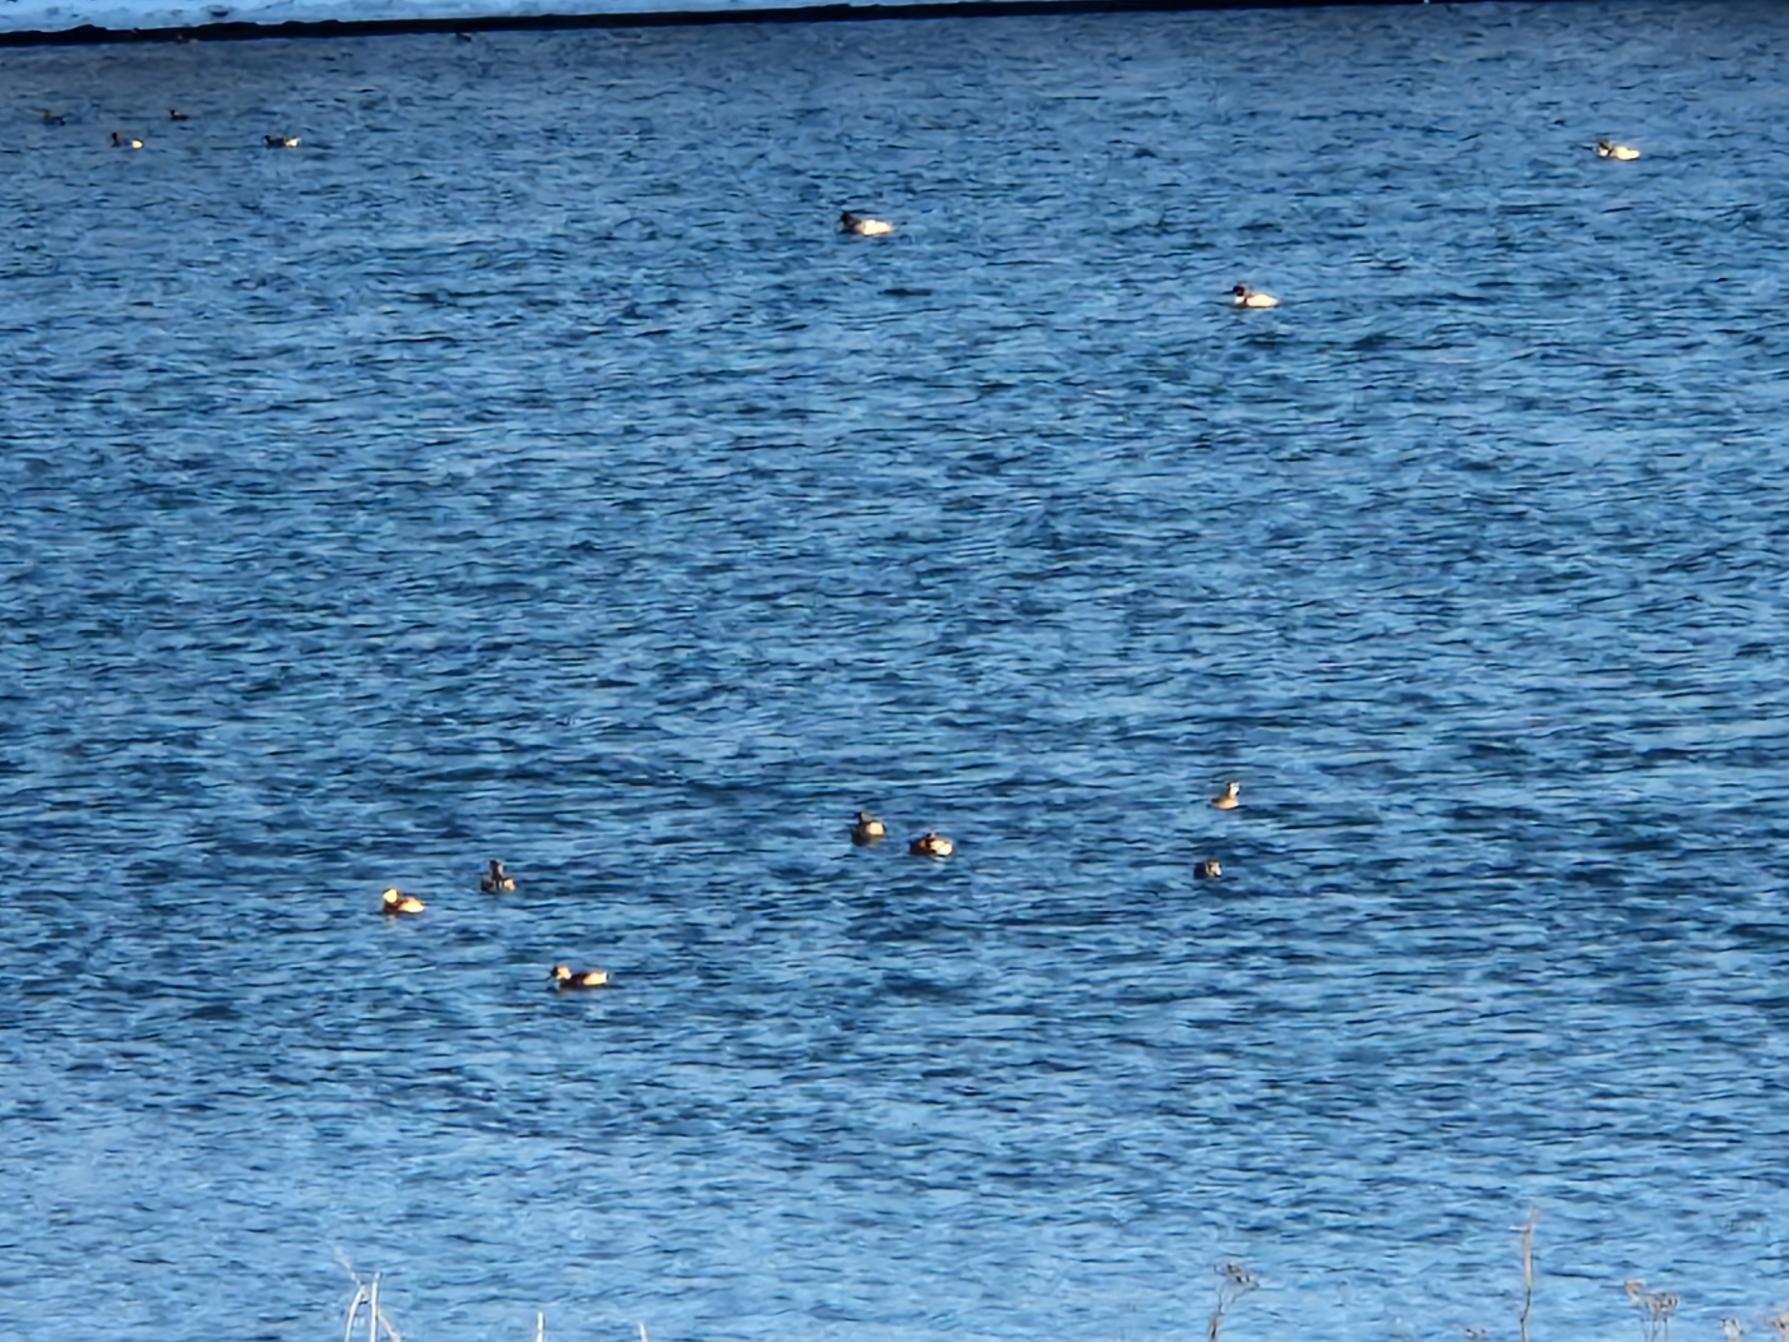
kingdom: Animalia
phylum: Chordata
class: Aves
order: Podicipediformes
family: Podicipedidae
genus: Tachybaptus
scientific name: Tachybaptus ruficollis
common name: Lille lappedykker
